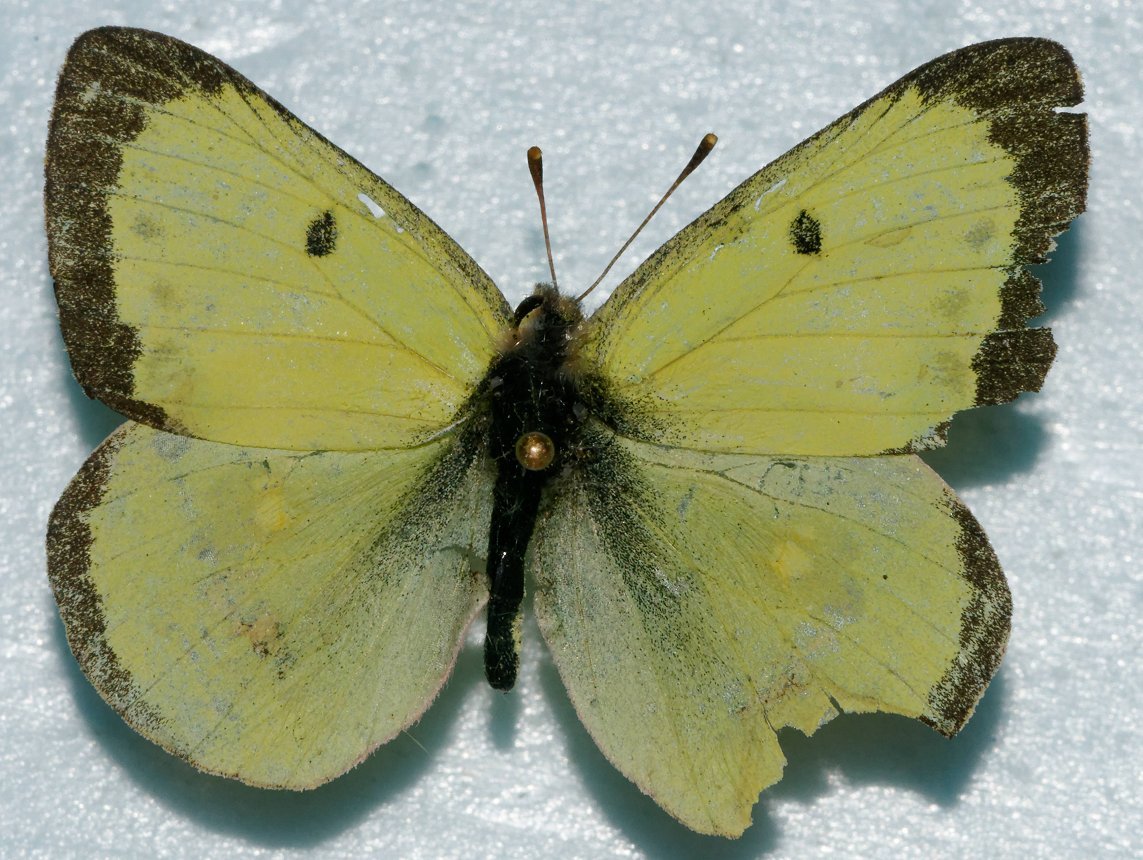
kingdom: Animalia
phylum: Arthropoda
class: Insecta
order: Lepidoptera
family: Pieridae
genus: Colias
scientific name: Colias philodice
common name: Clouded Sulphur
